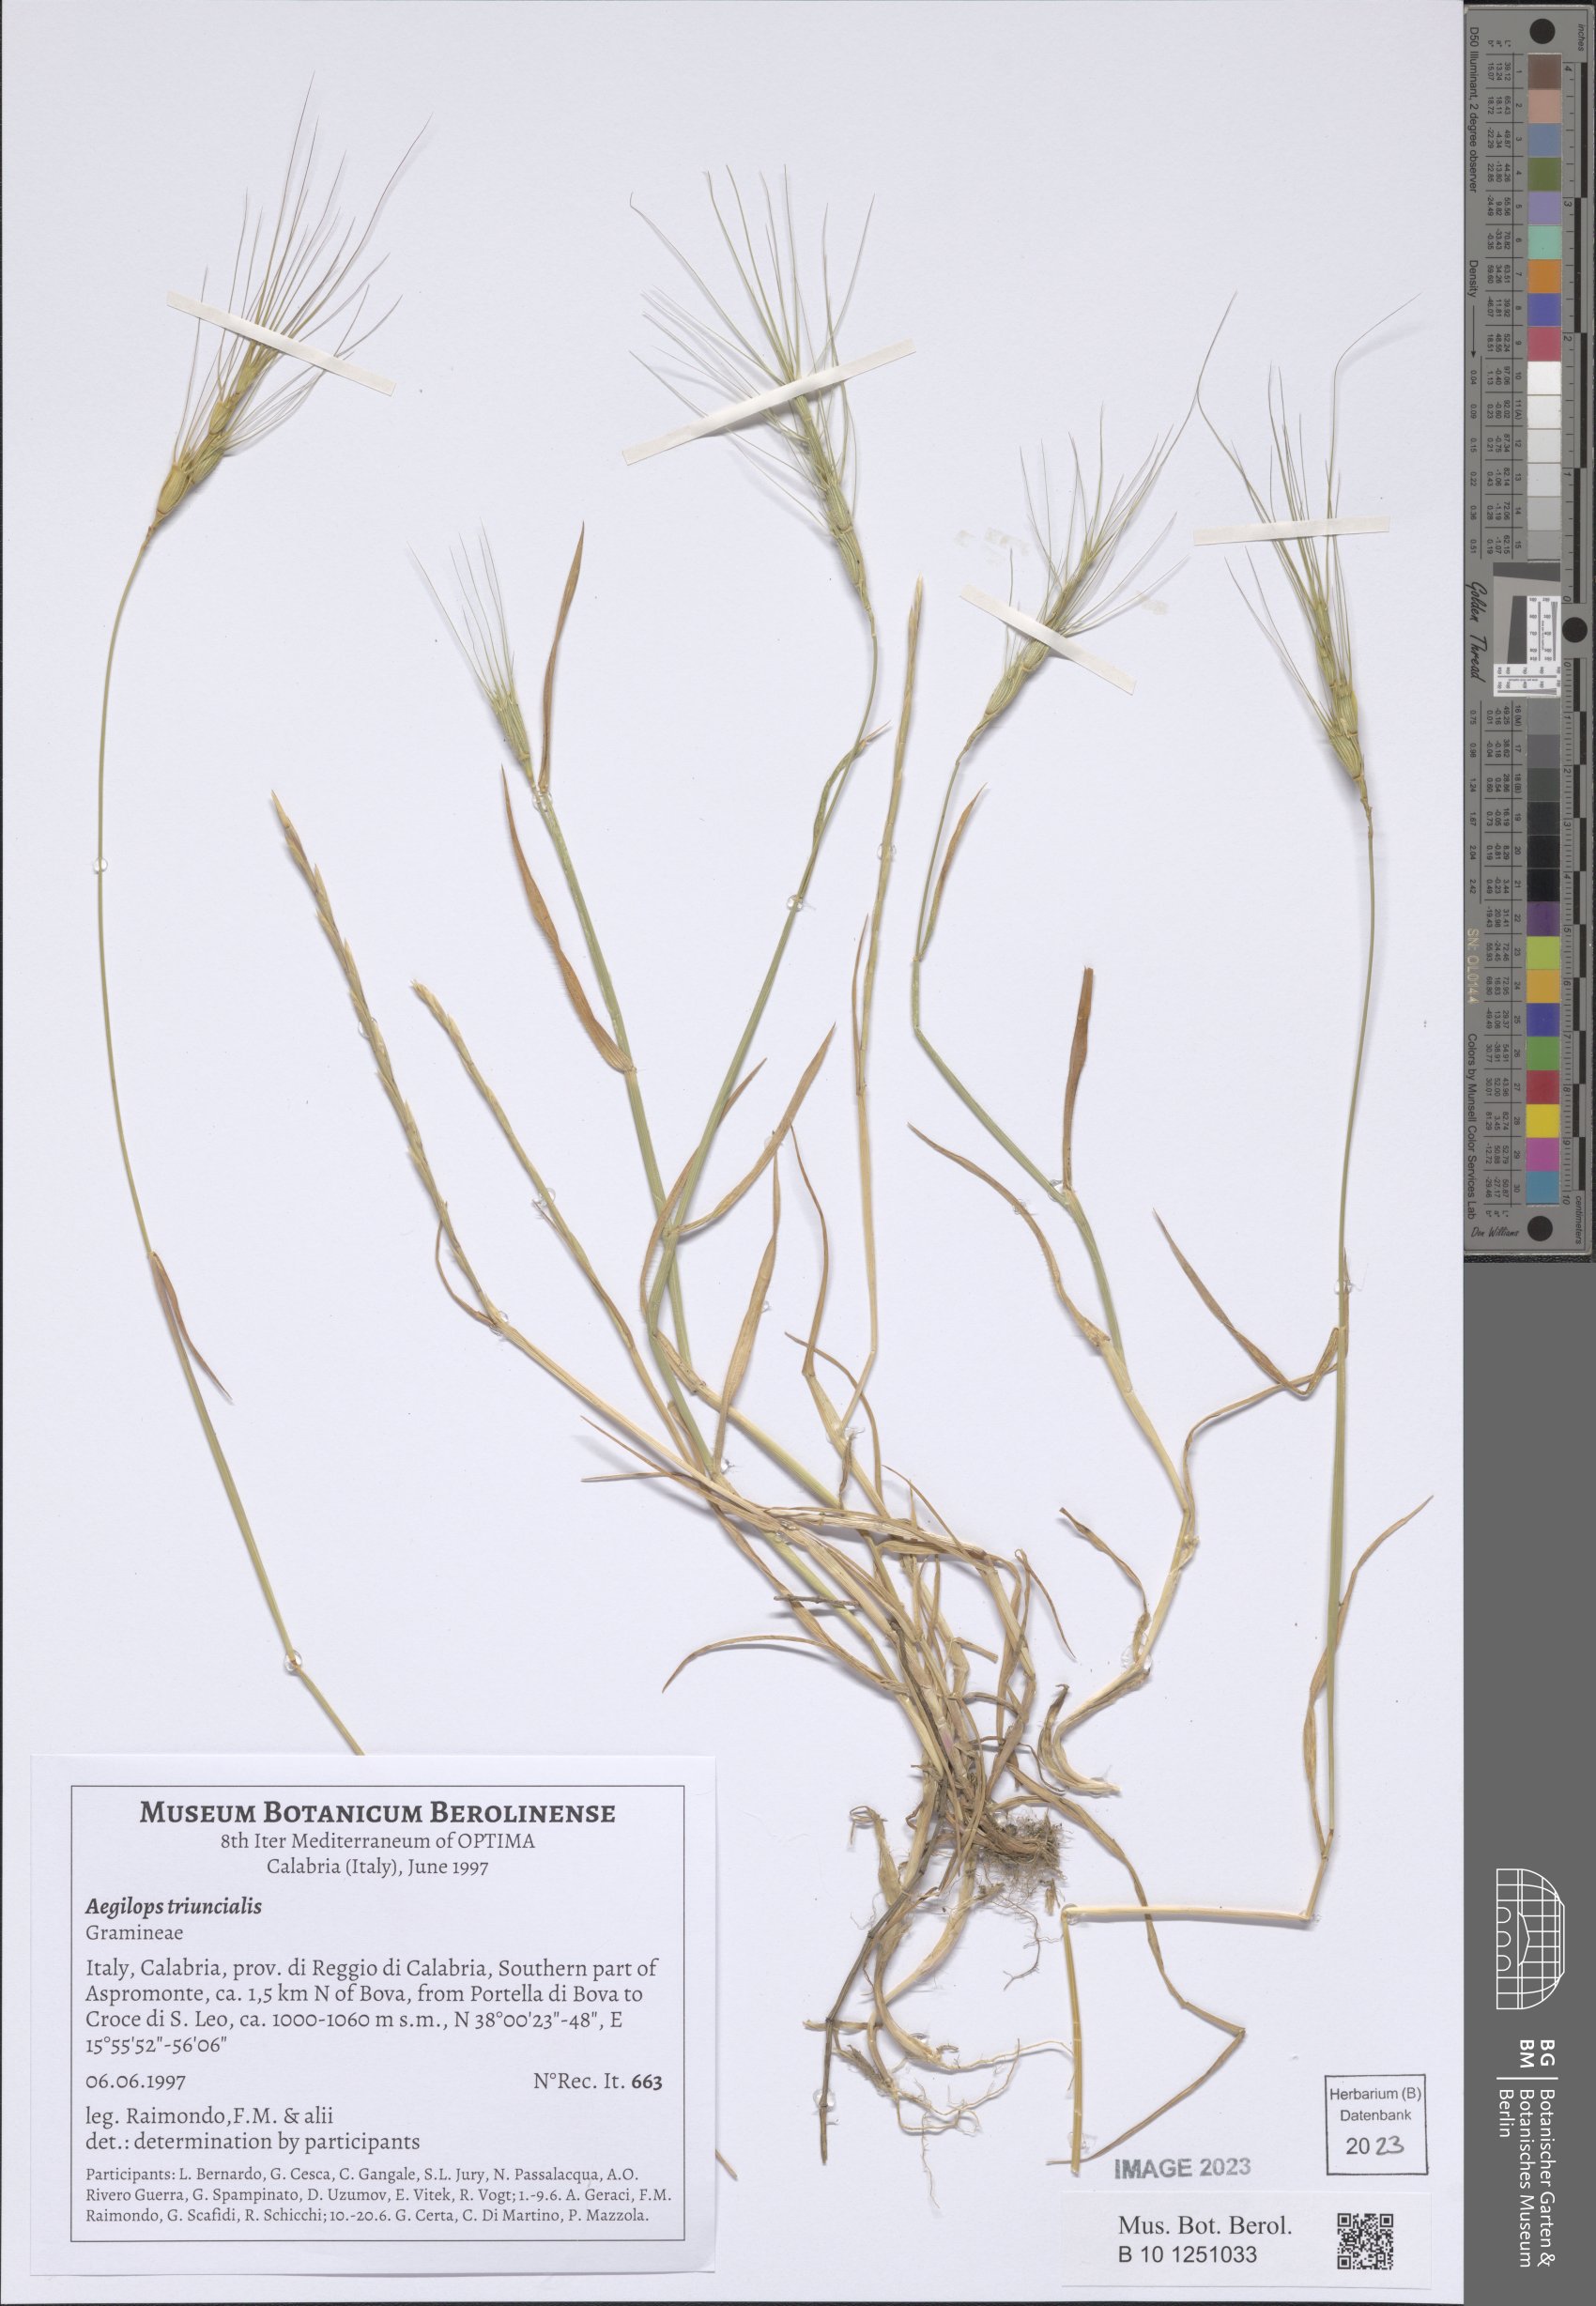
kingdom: Plantae
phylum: Tracheophyta
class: Liliopsida
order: Poales
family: Poaceae
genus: Aegilops
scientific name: Aegilops triuncialis
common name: Barb goat grass
